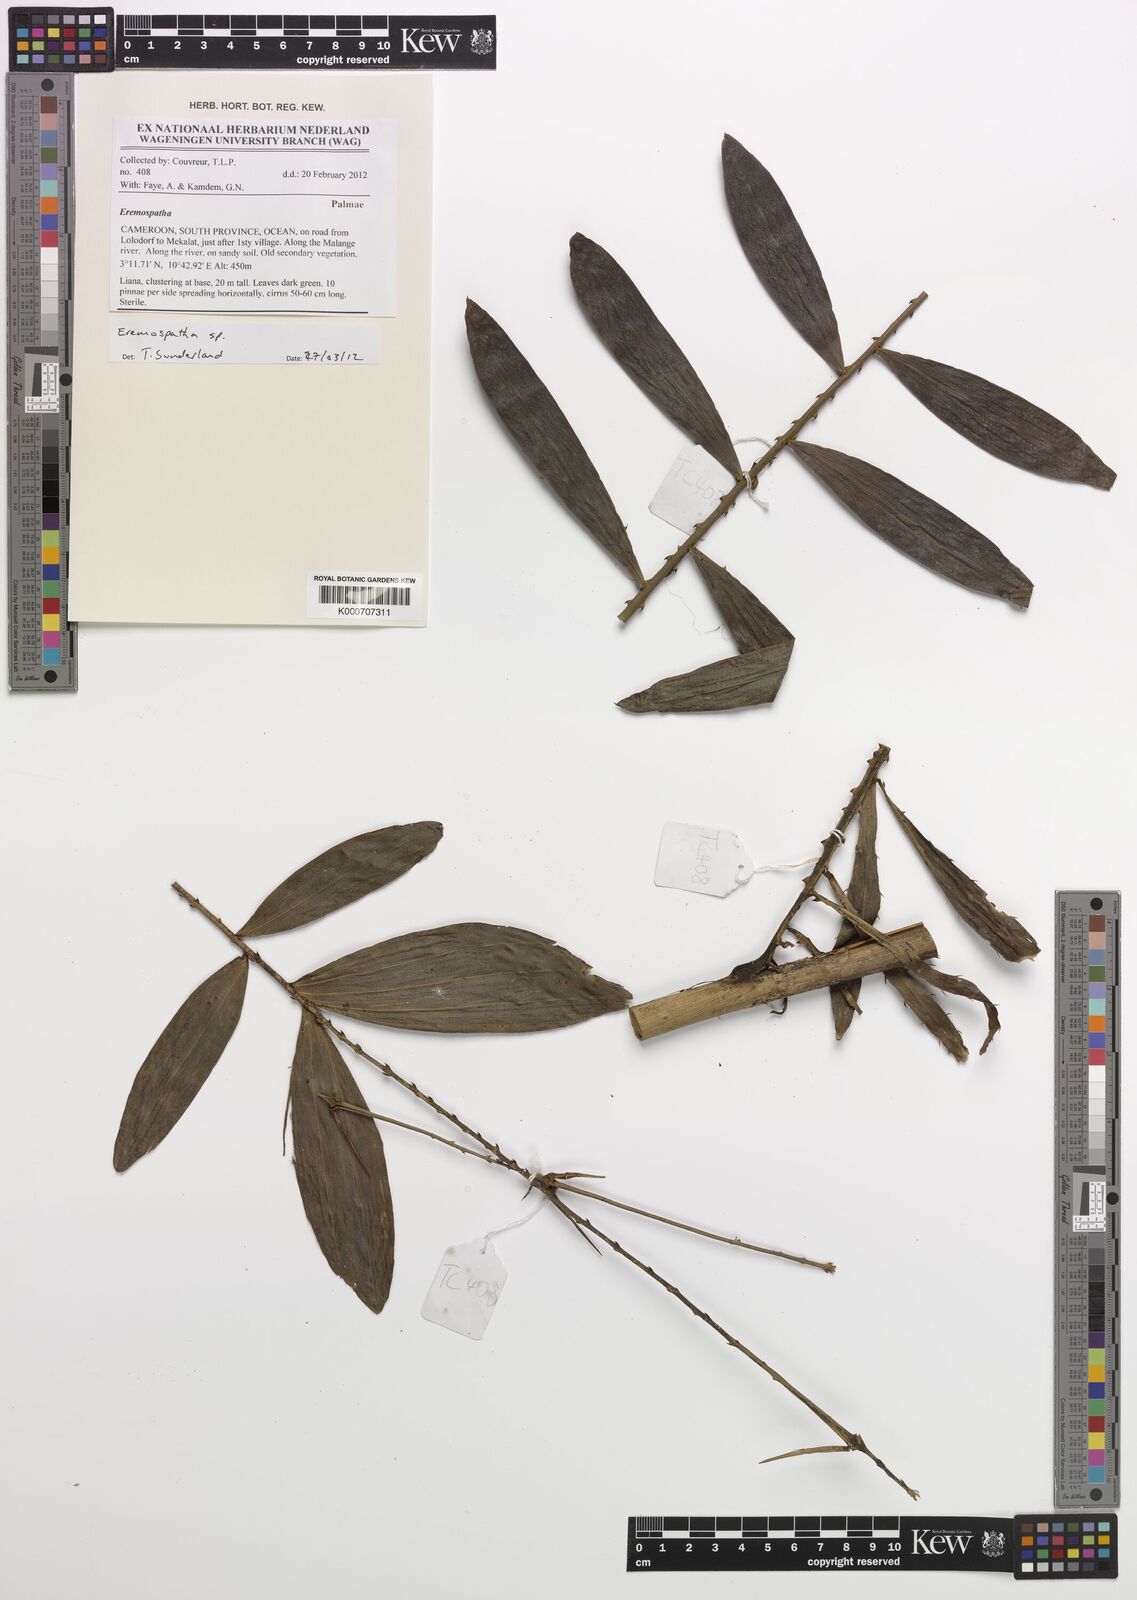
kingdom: Plantae
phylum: Tracheophyta
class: Liliopsida
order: Arecales
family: Arecaceae
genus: Eremospatha
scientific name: Eremospatha
